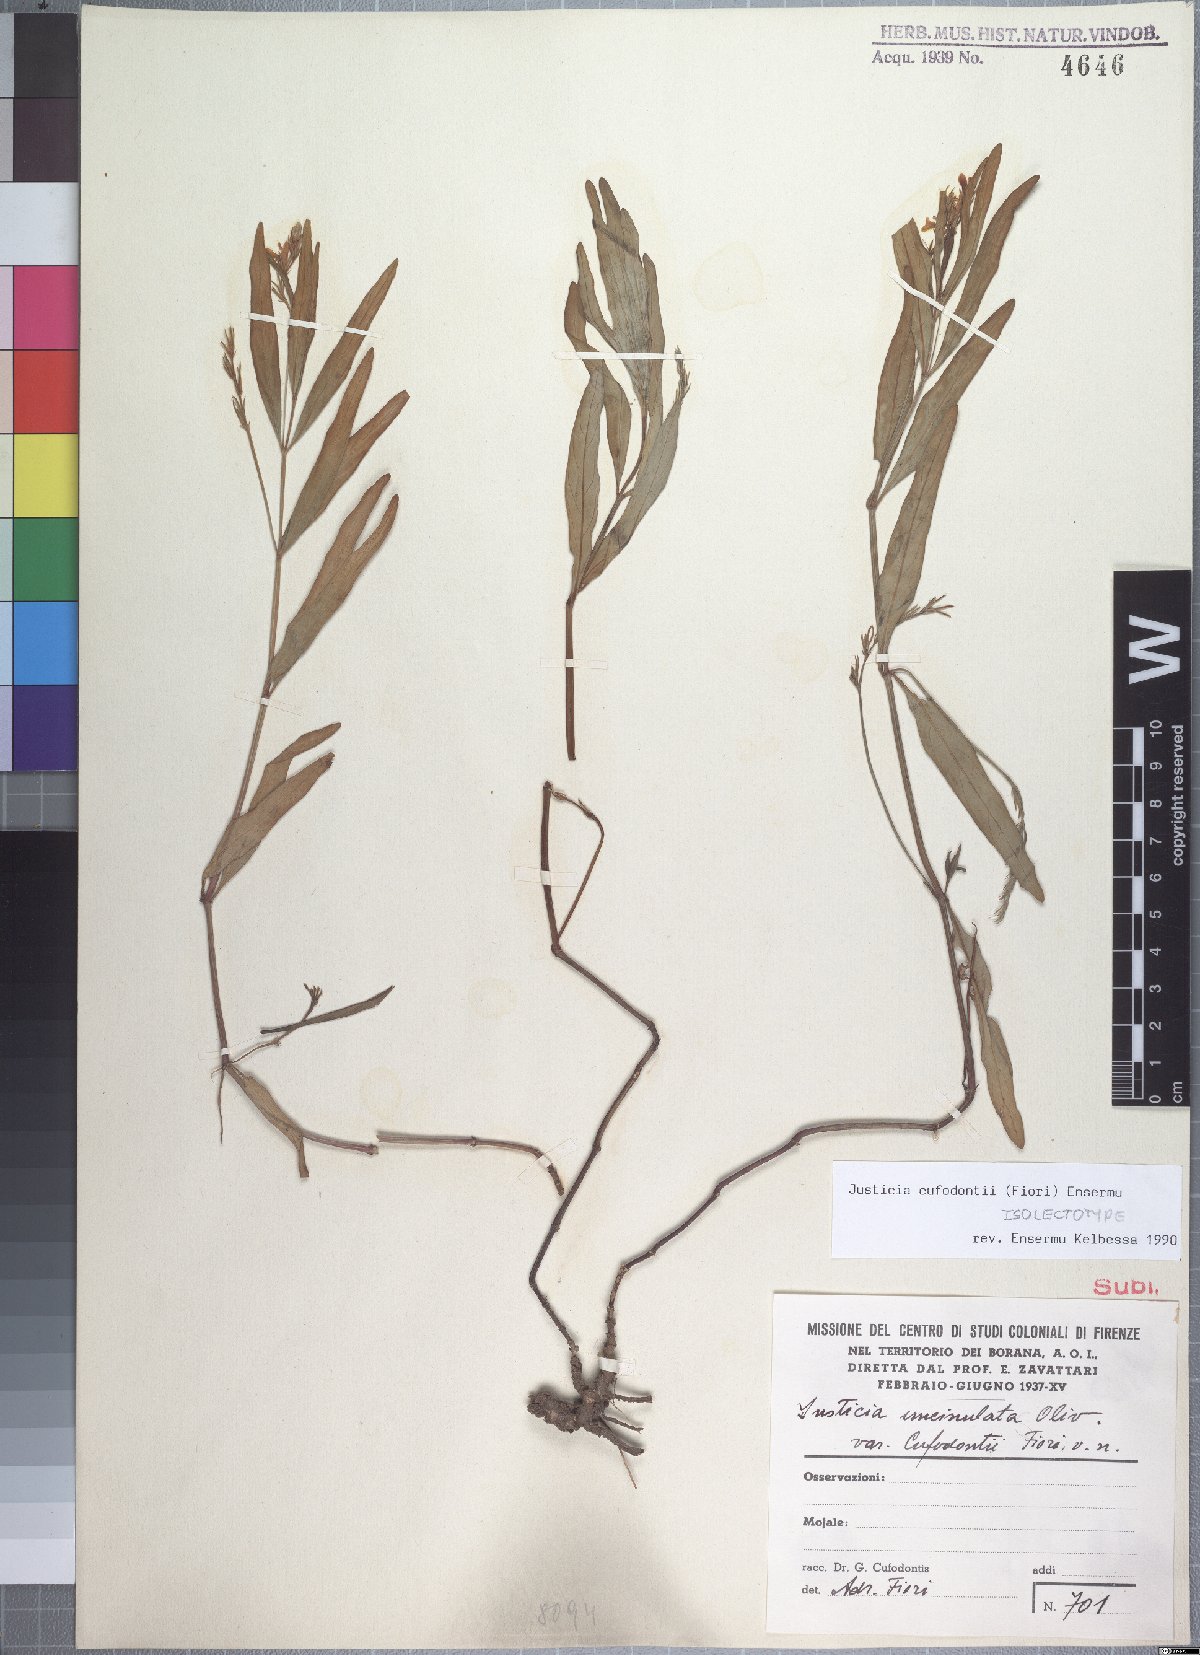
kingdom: Plantae
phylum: Tracheophyta
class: Magnoliopsida
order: Lamiales
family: Acanthaceae
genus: Justicia
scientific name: Justicia cufodontii
